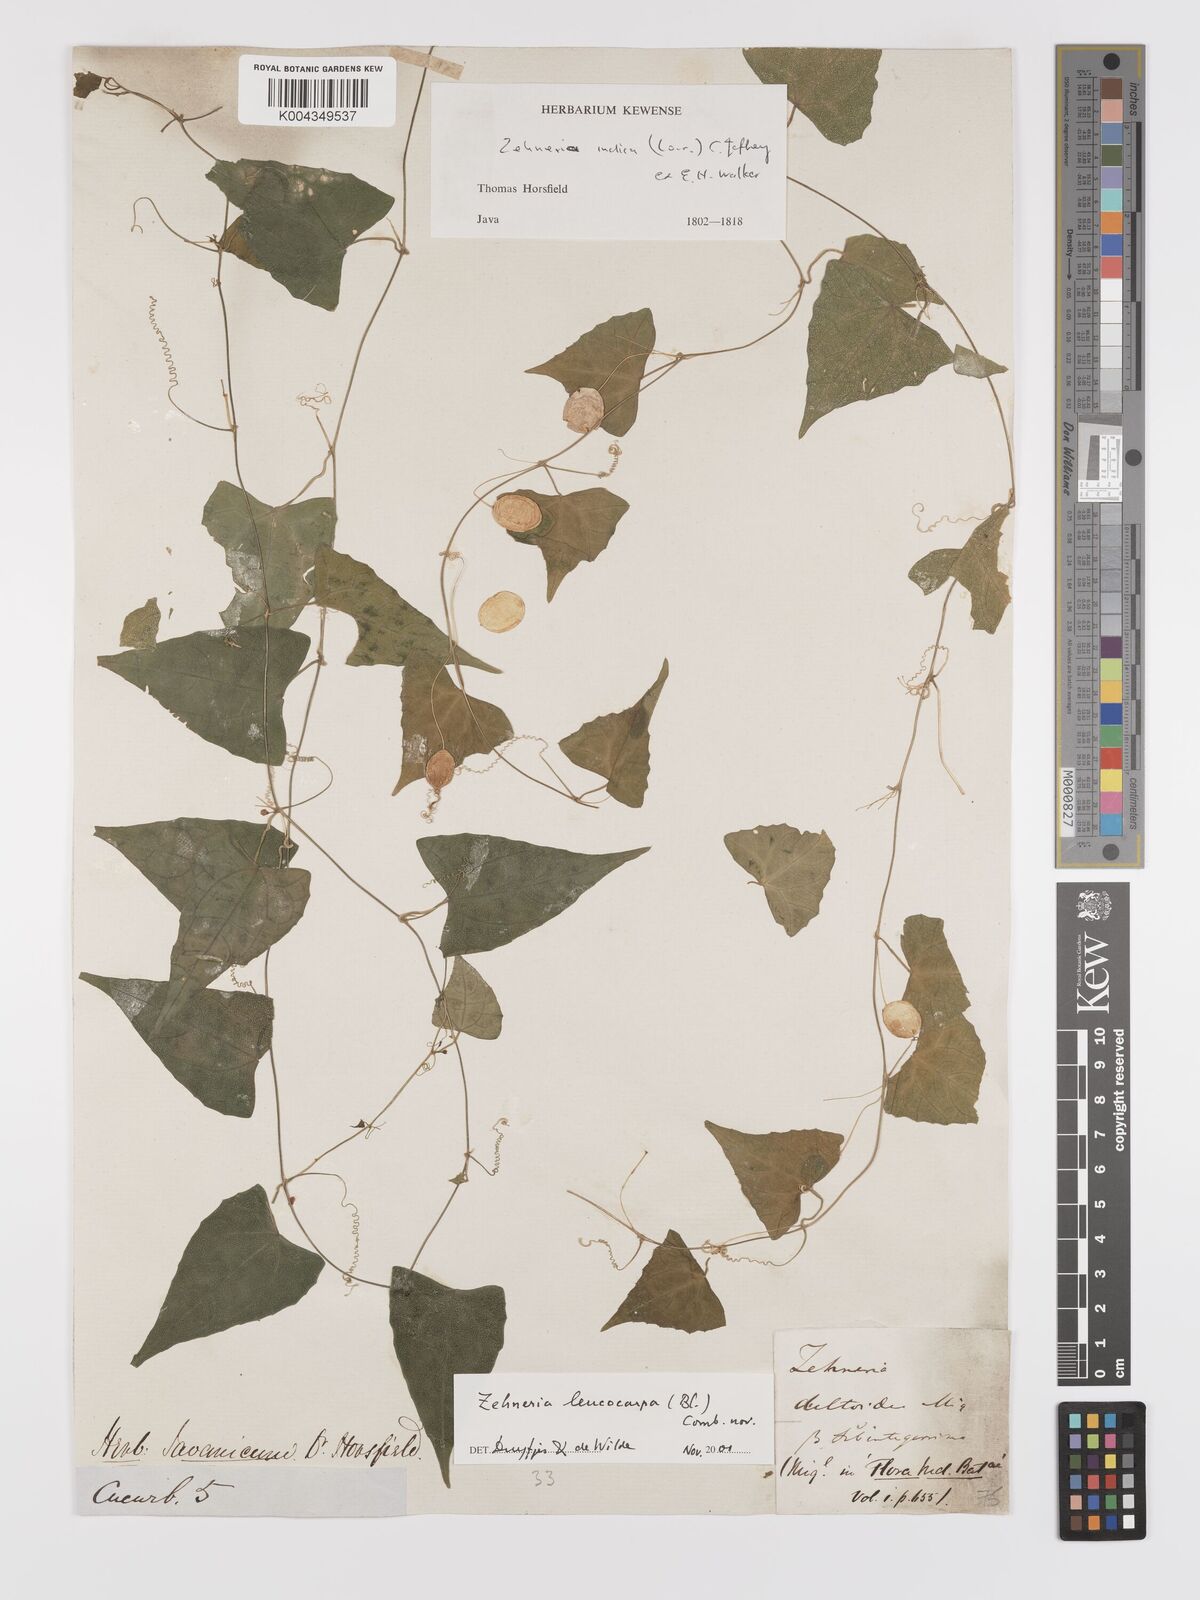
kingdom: Plantae
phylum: Tracheophyta
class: Magnoliopsida
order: Cucurbitales
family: Cucurbitaceae
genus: Zehneria
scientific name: Zehneria leucocarpa
